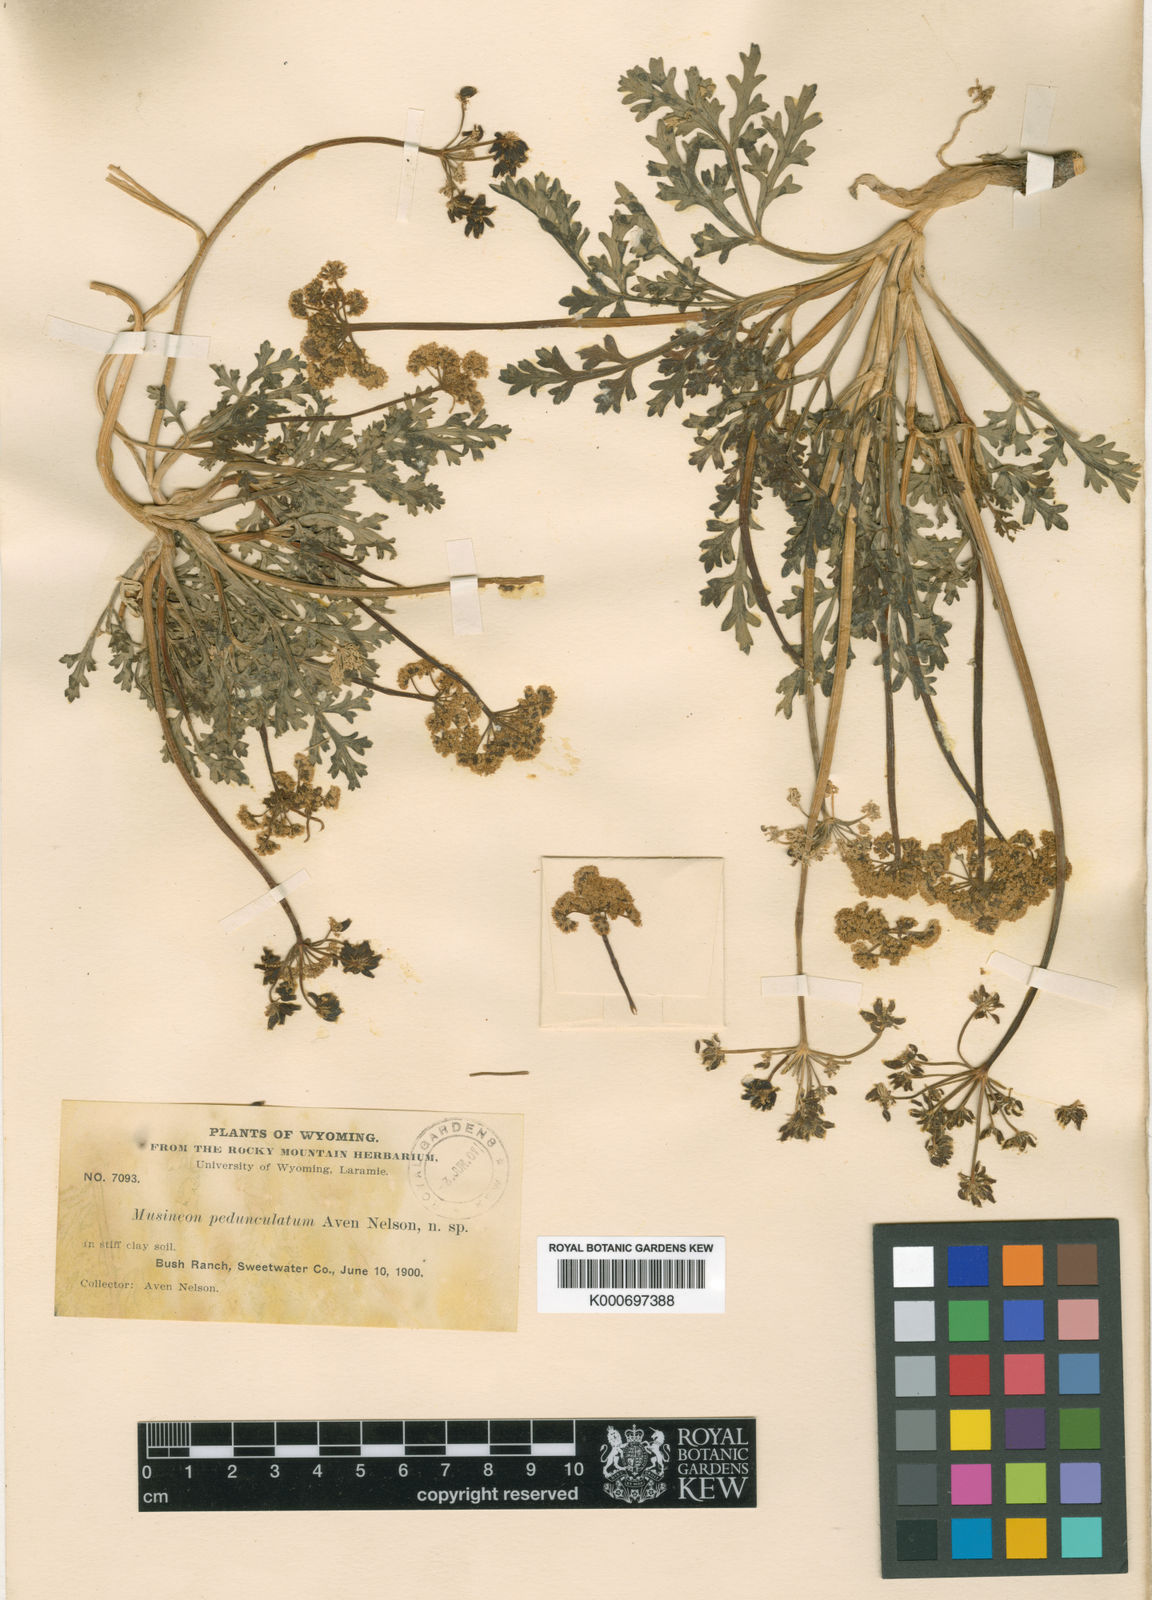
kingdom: Plantae
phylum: Tracheophyta
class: Magnoliopsida
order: Apiales
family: Apiaceae
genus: Musineon
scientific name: Musineon divaricatum
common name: Plains musineon
